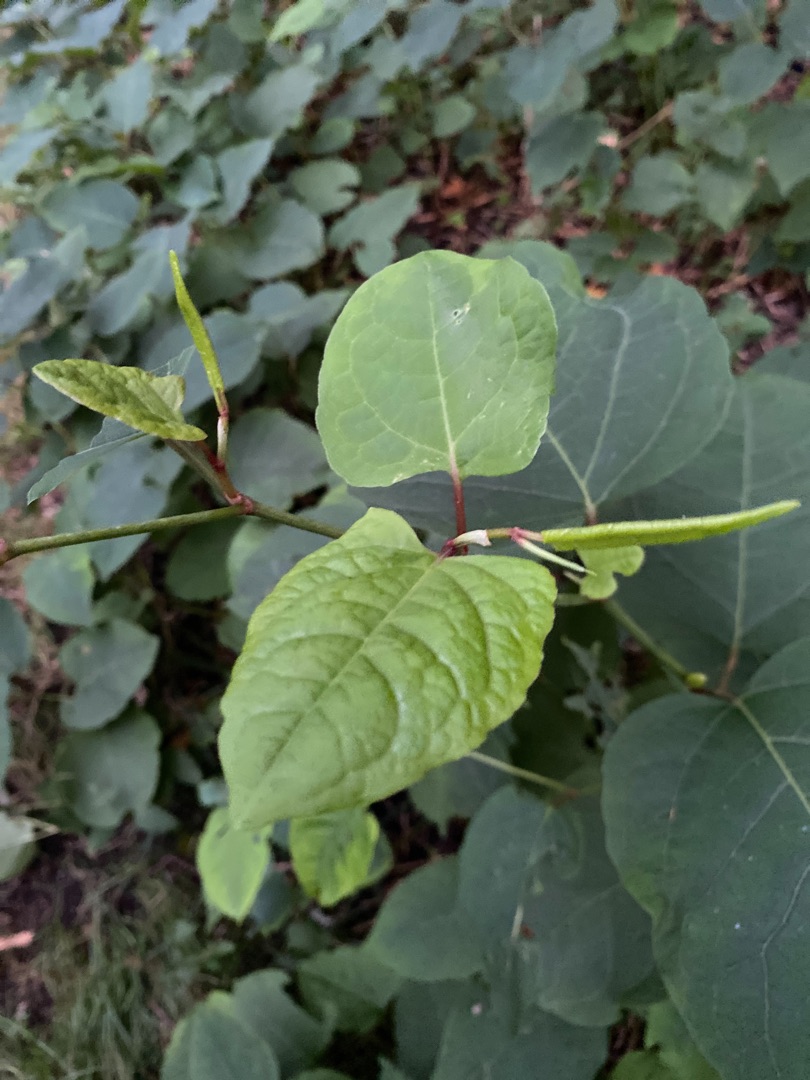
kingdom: Plantae
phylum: Tracheophyta
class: Magnoliopsida
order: Caryophyllales
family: Polygonaceae
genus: Reynoutria
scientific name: Reynoutria japonica
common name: Japan-pileurt
